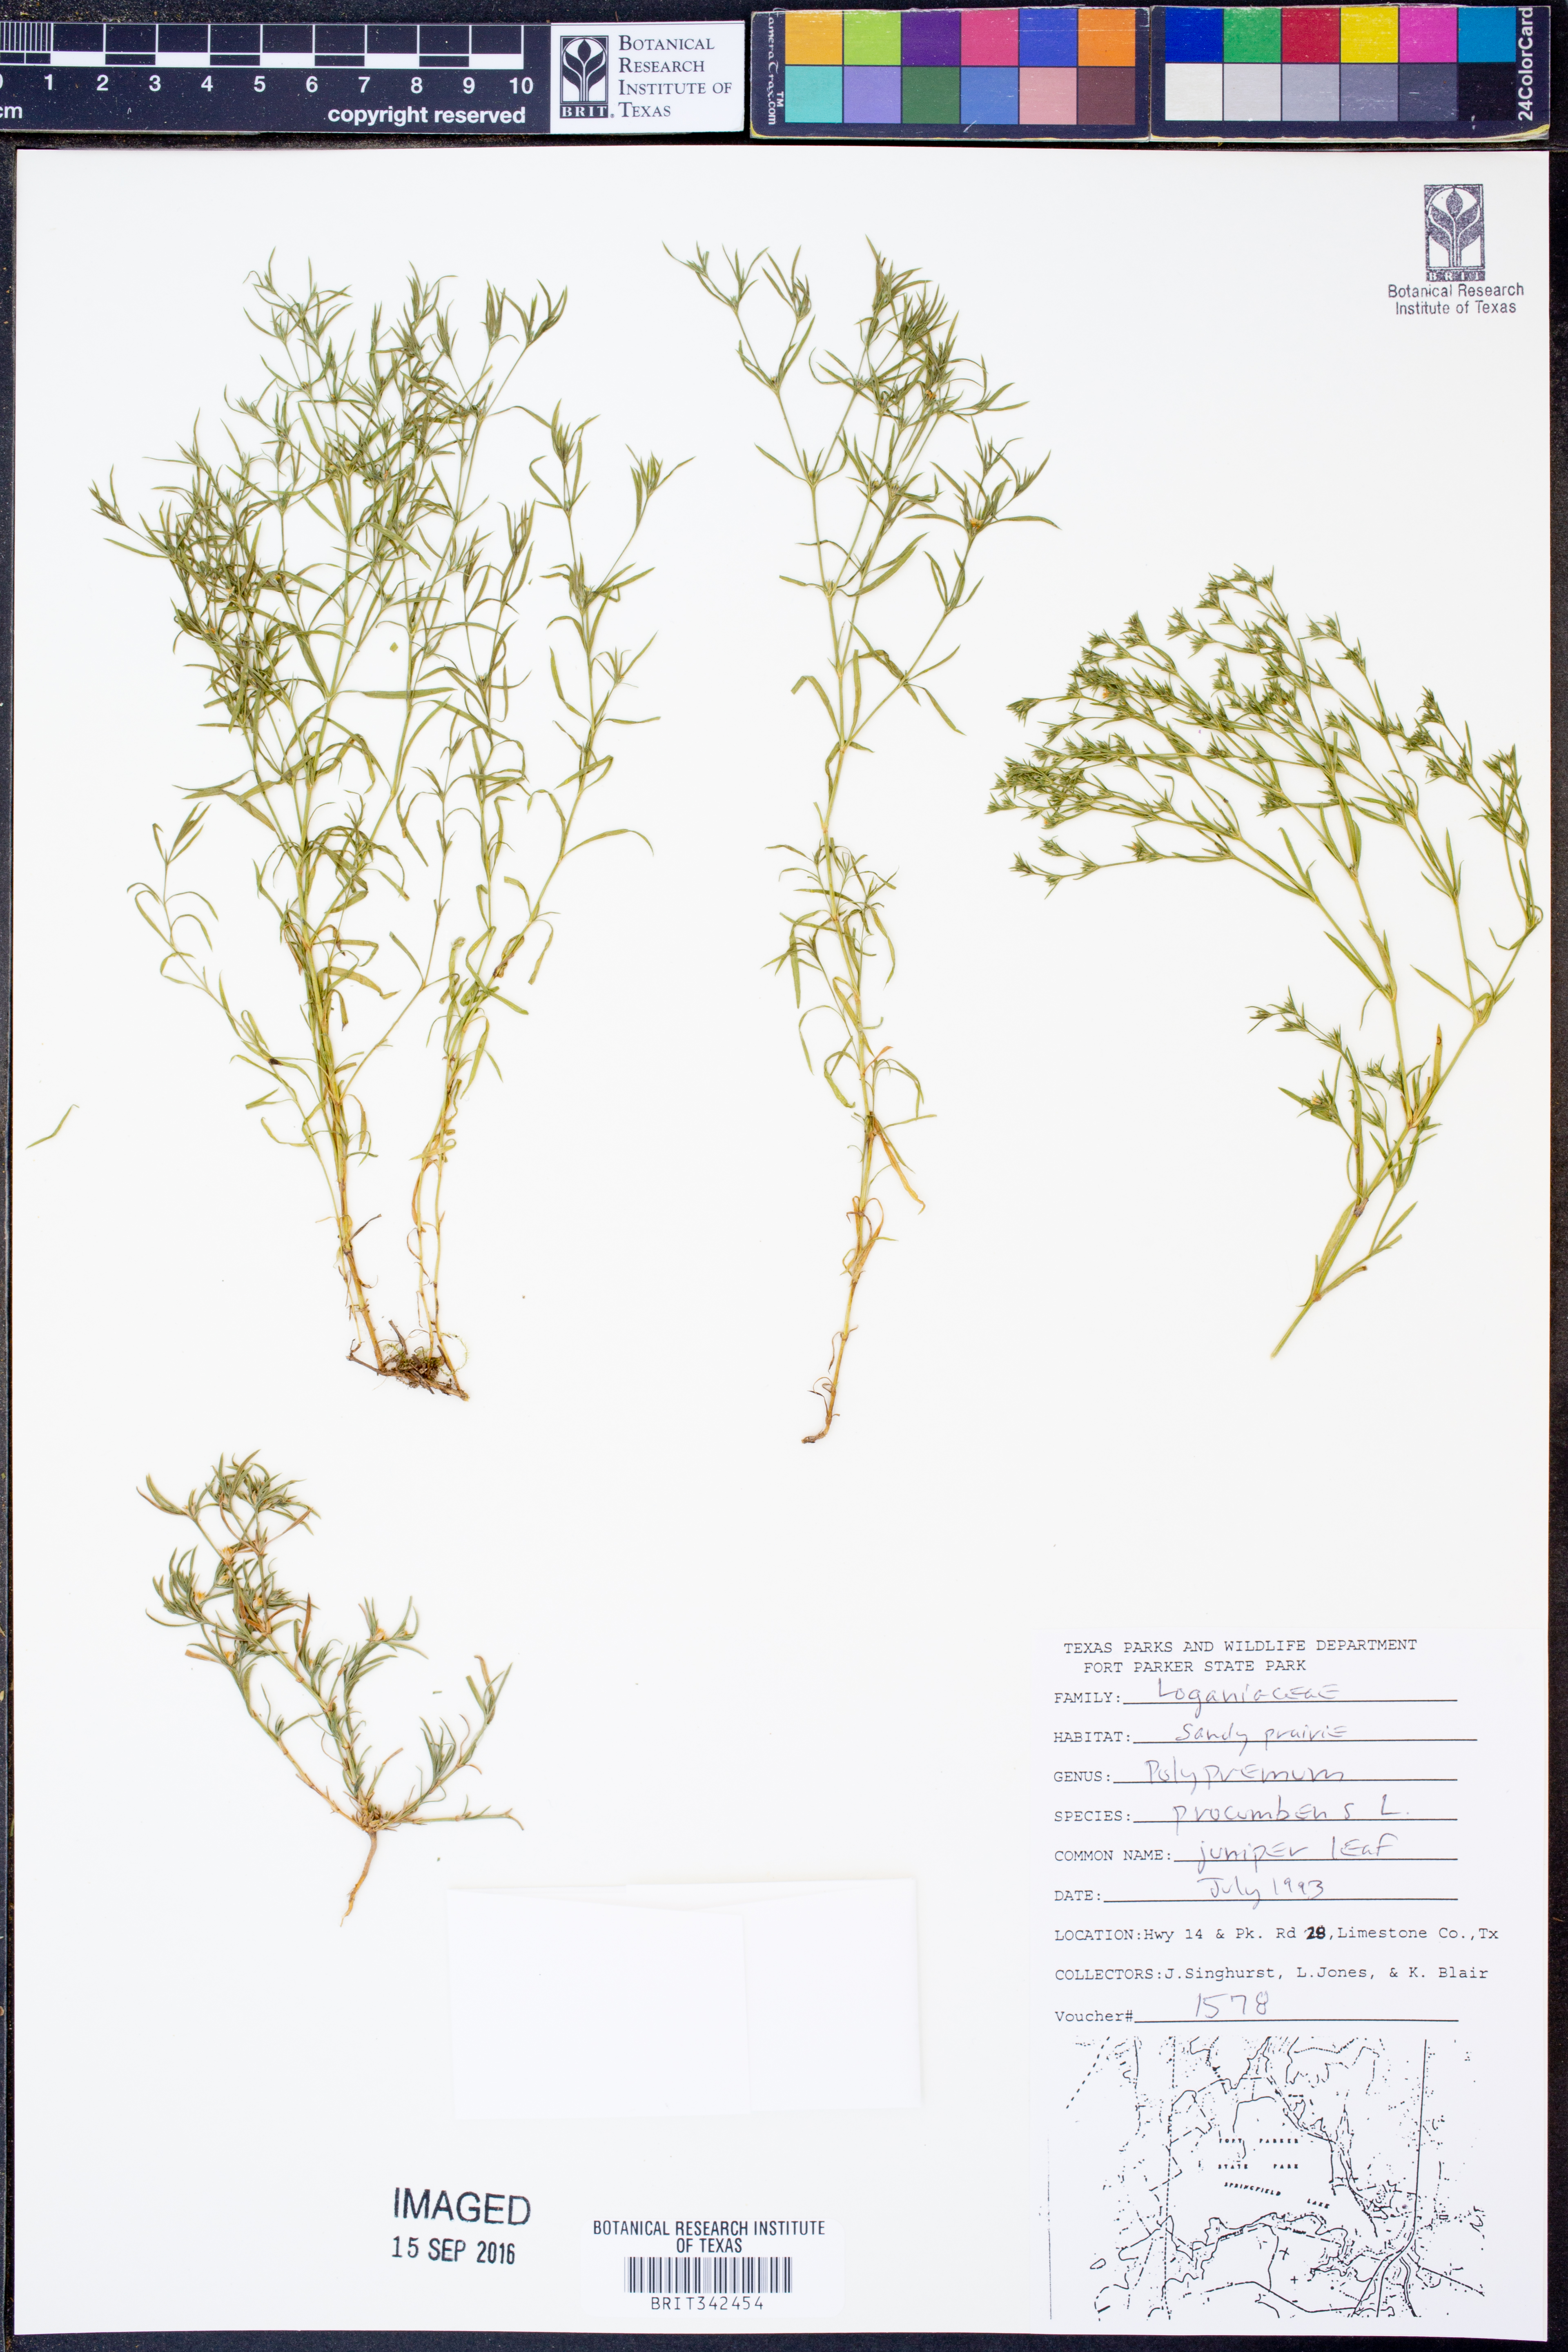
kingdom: Plantae
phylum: Tracheophyta
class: Magnoliopsida
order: Lamiales
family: Tetrachondraceae
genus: Polypremum
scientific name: Polypremum procumbens
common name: Juniper-leaf
